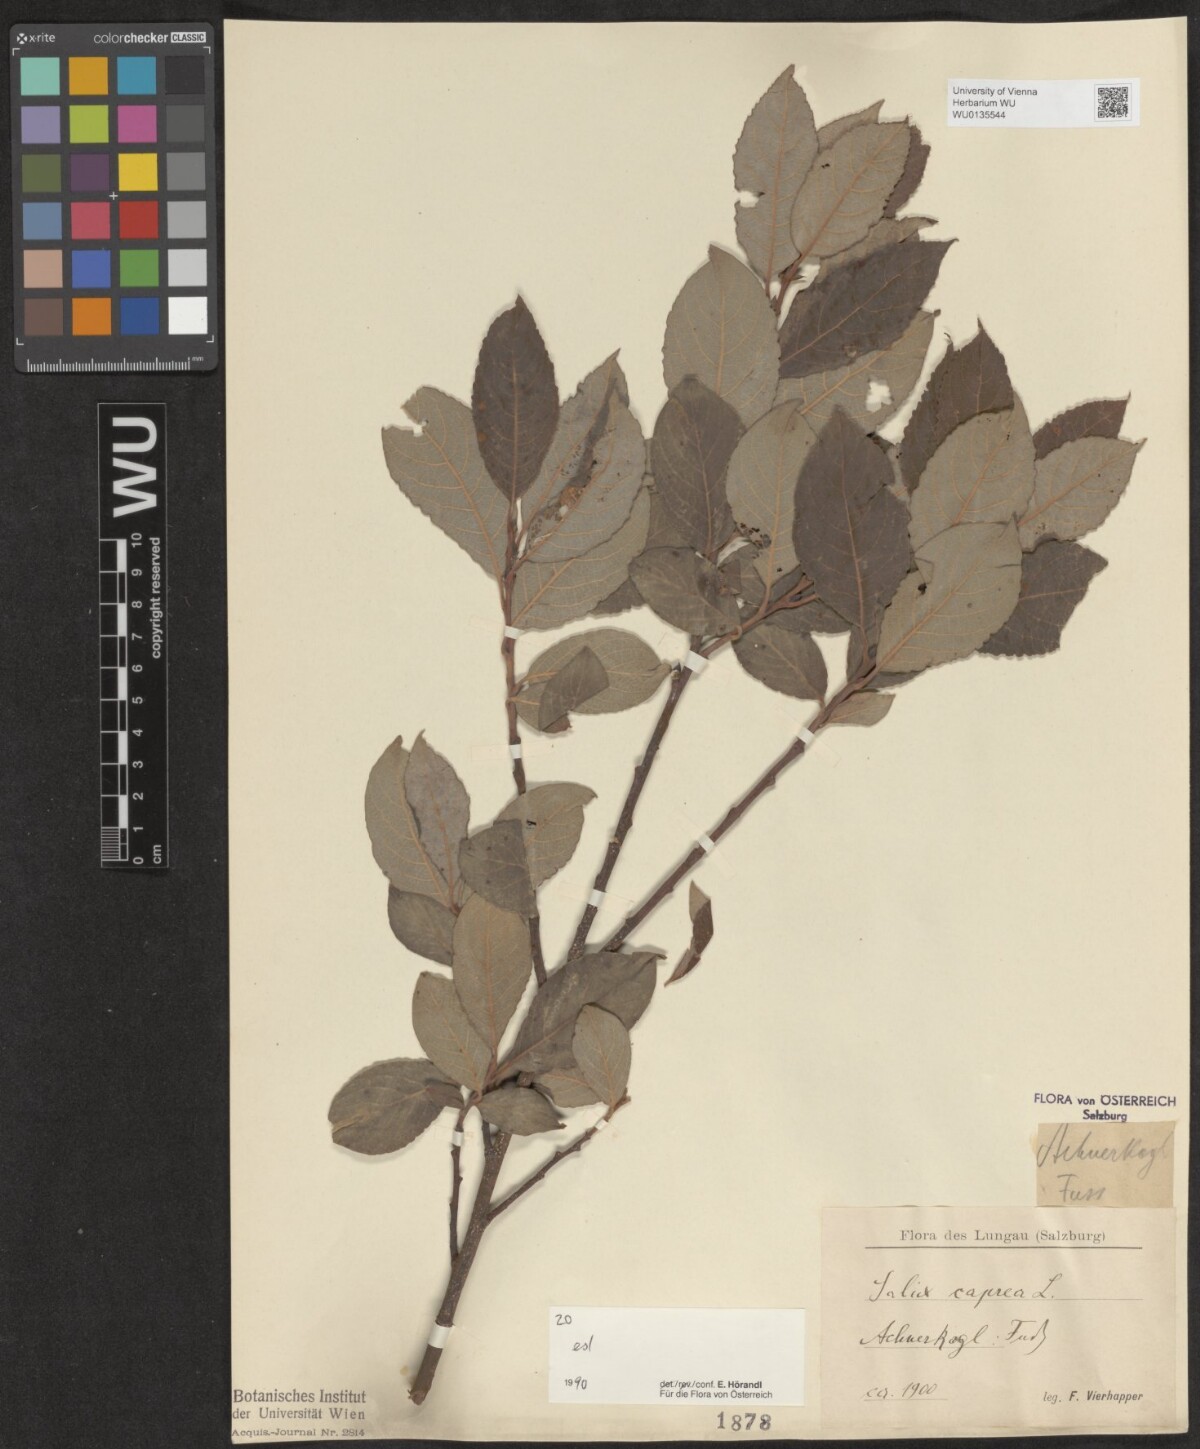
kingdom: Plantae
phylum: Tracheophyta
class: Magnoliopsida
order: Malpighiales
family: Salicaceae
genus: Salix
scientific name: Salix caprea
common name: Goat willow
